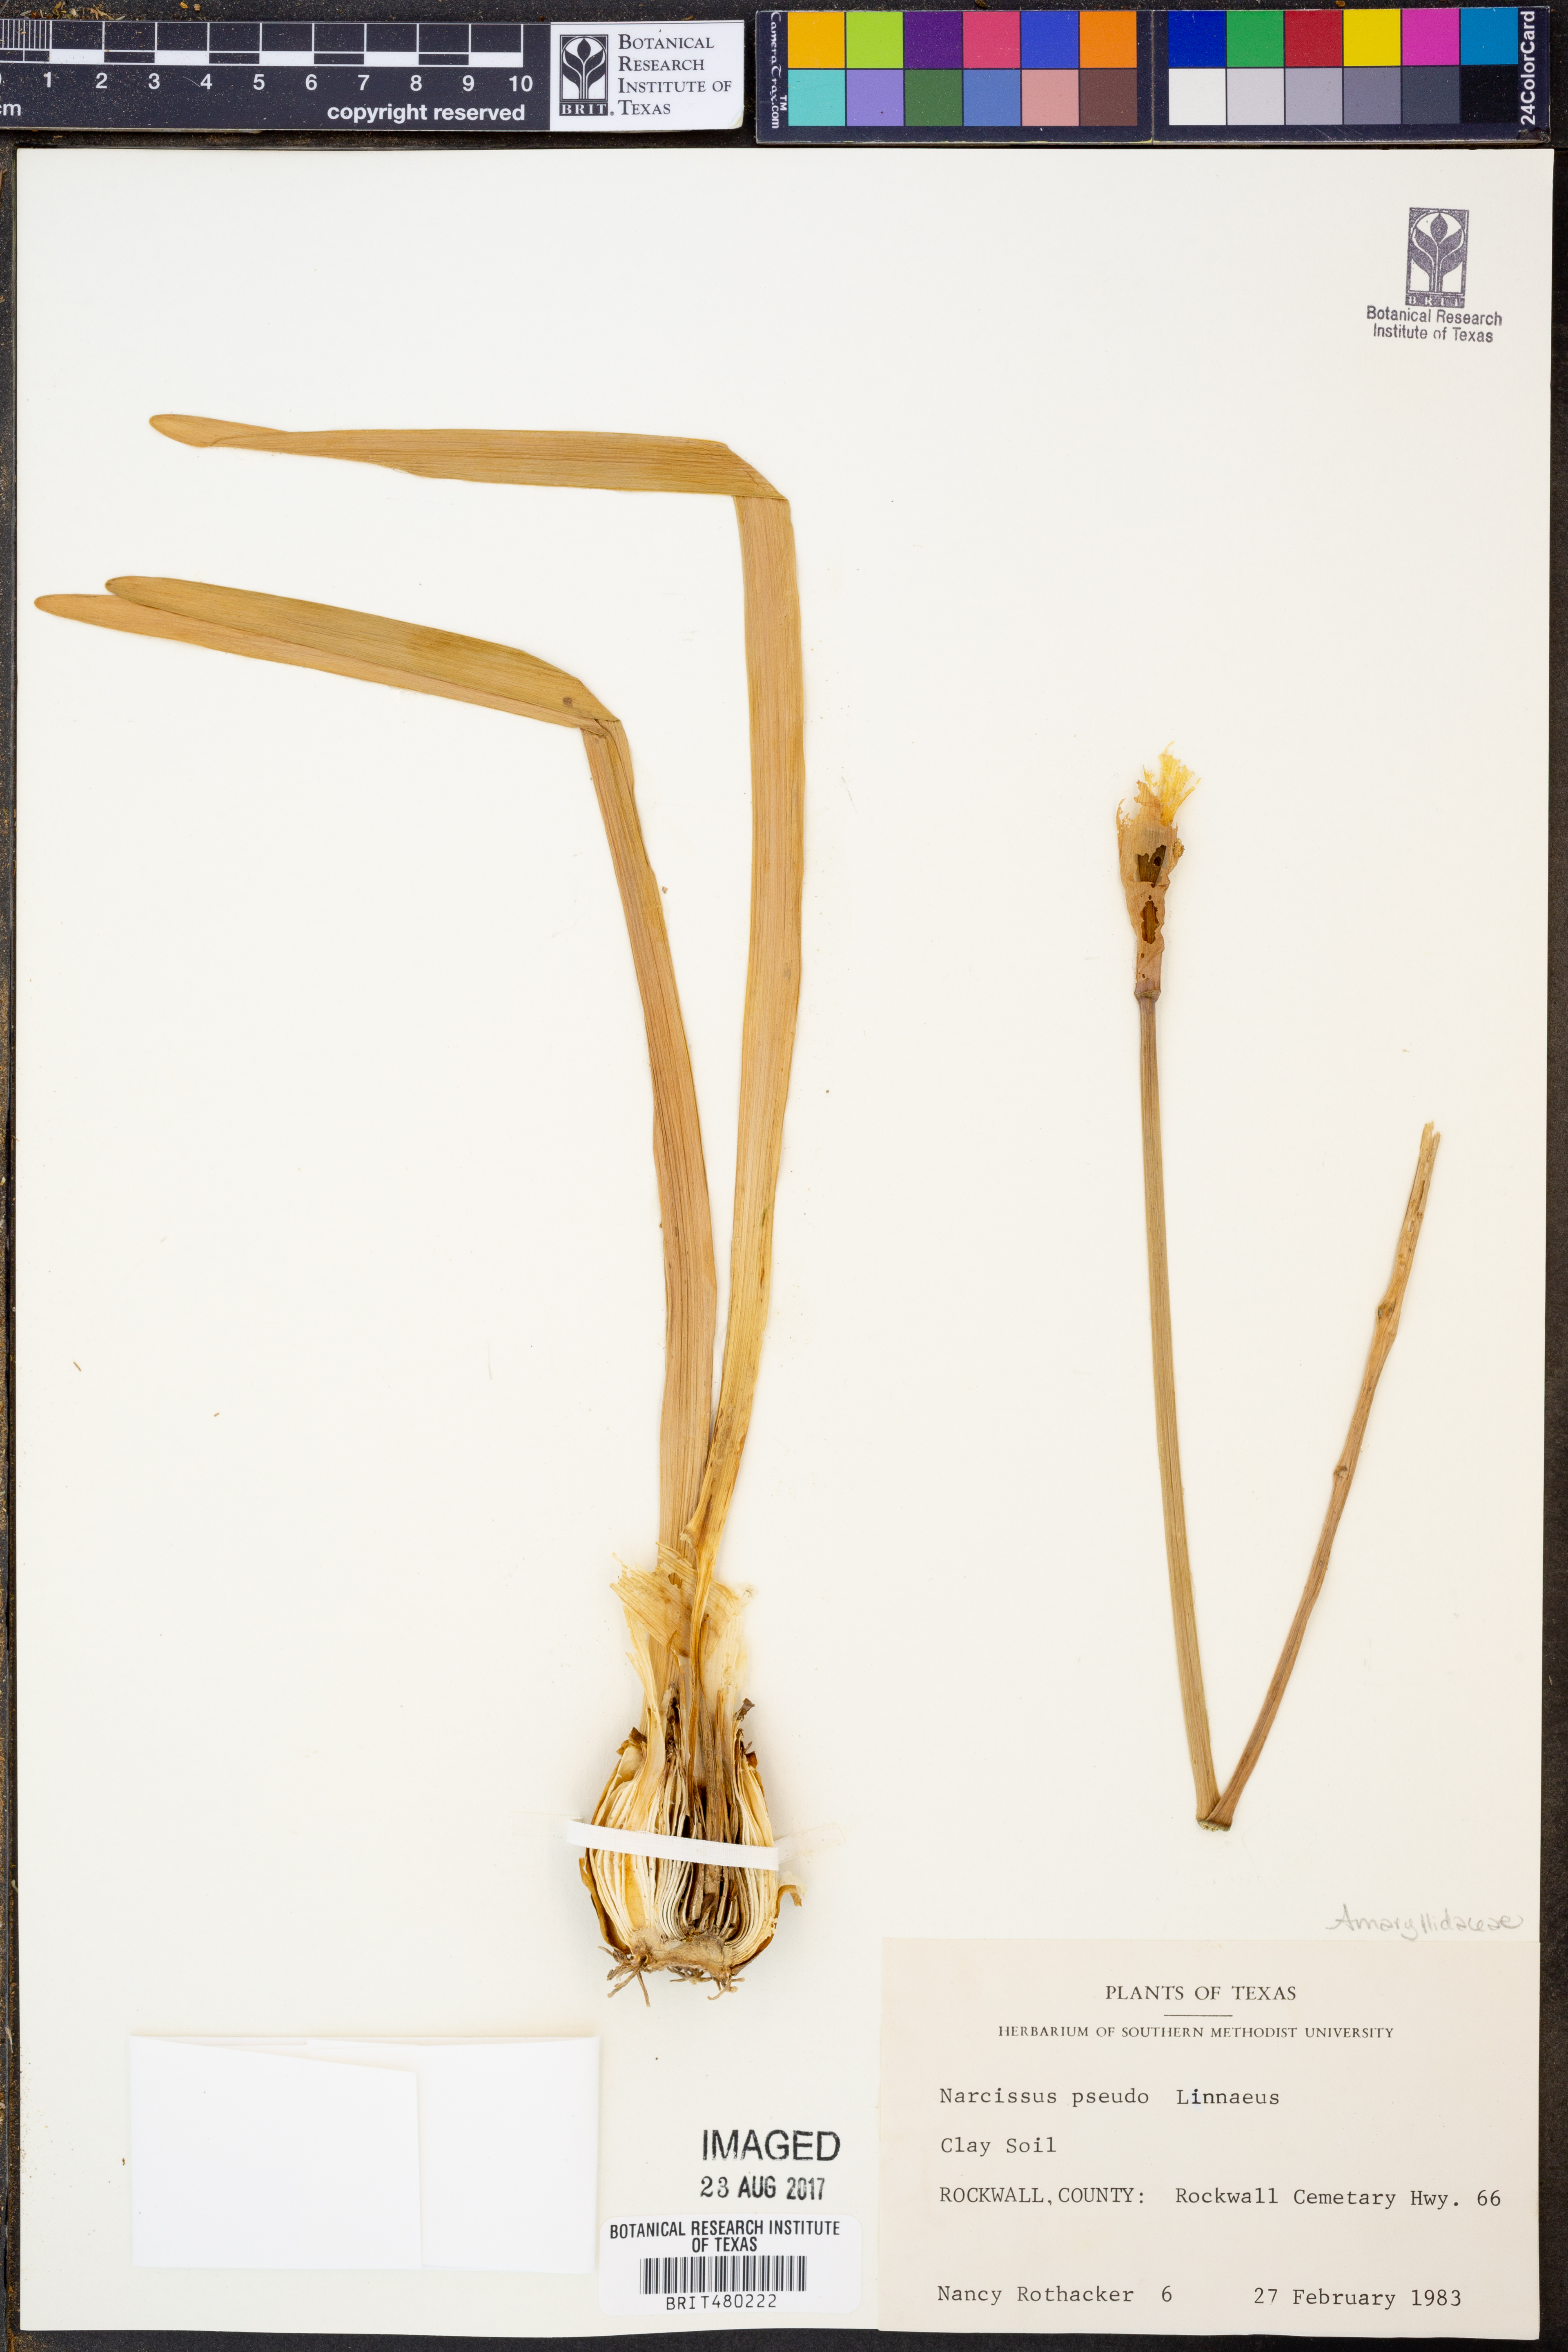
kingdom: Plantae
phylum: Tracheophyta
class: Liliopsida
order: Asparagales
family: Amaryllidaceae
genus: Narcissus
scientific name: Narcissus
